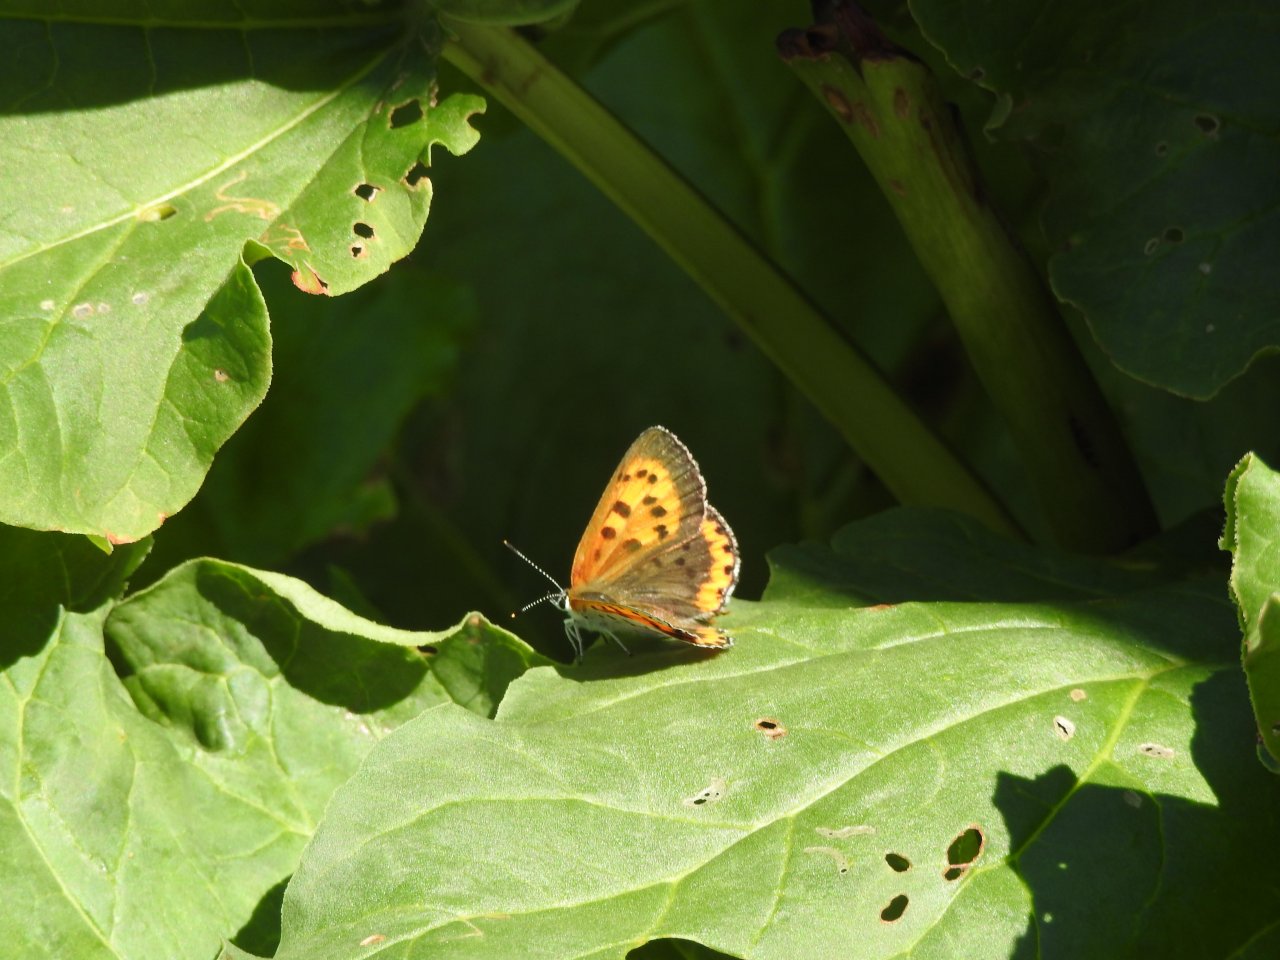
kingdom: Animalia
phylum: Arthropoda
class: Insecta
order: Lepidoptera
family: Sesiidae
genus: Sesia
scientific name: Sesia Lycaena hyllus
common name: Bronze Copper
